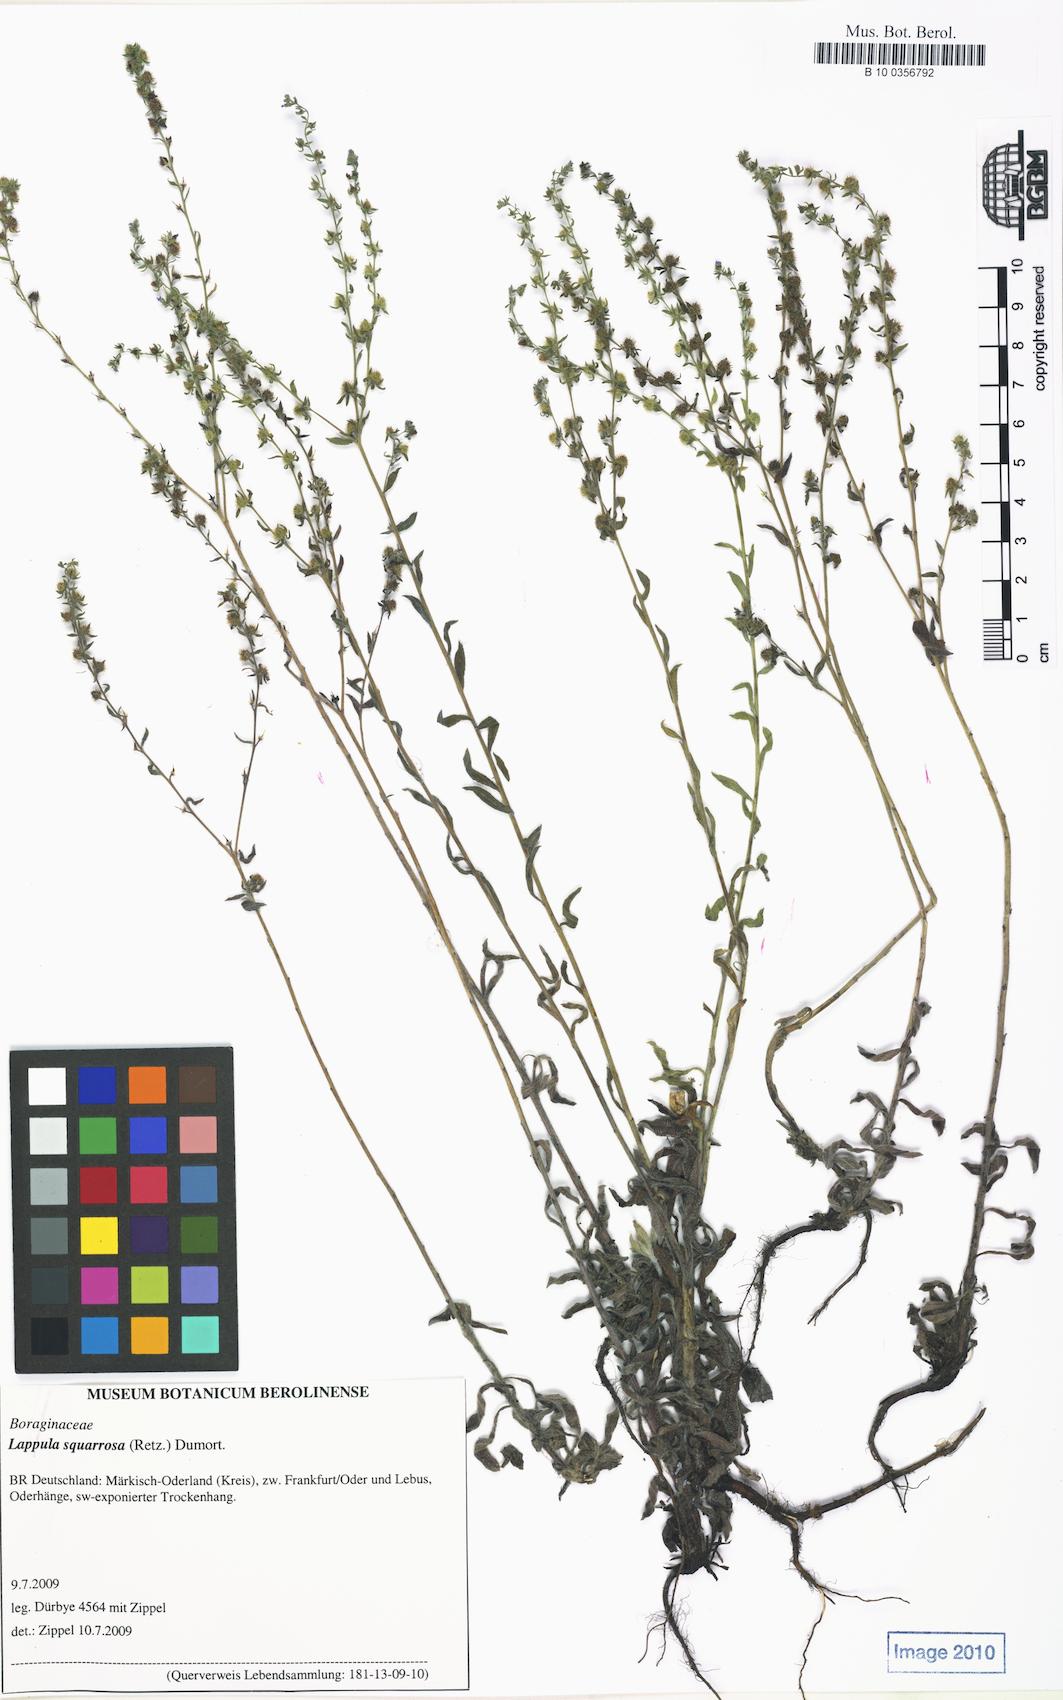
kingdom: Plantae
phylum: Tracheophyta
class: Magnoliopsida
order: Boraginales
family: Boraginaceae
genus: Lappula
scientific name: Lappula squarrosa
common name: European stickseed
